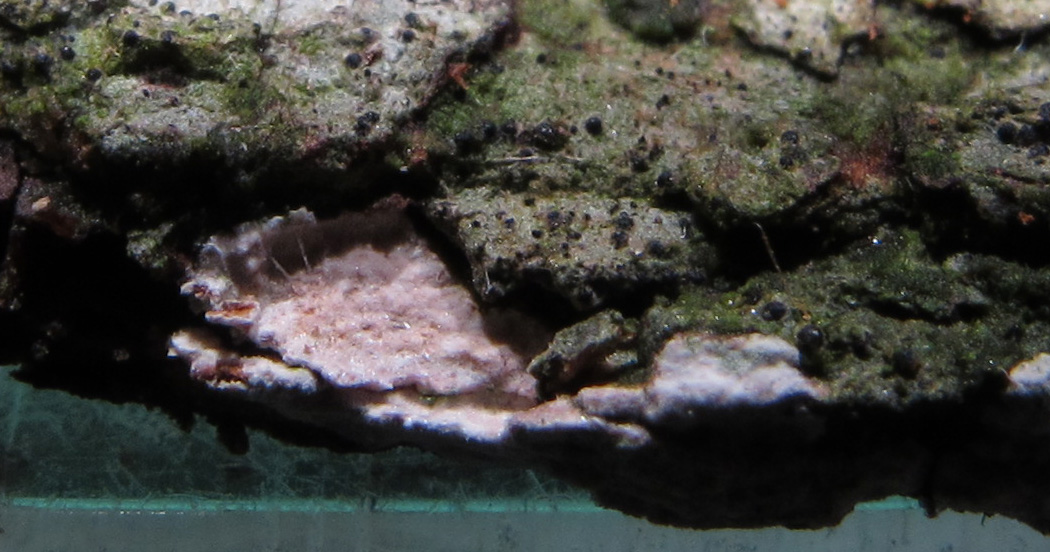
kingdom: Fungi
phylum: Basidiomycota
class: Agaricomycetes
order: Corticiales
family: Corticiaceae
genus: Dendrothele
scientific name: Dendrothele
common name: kalkplet
